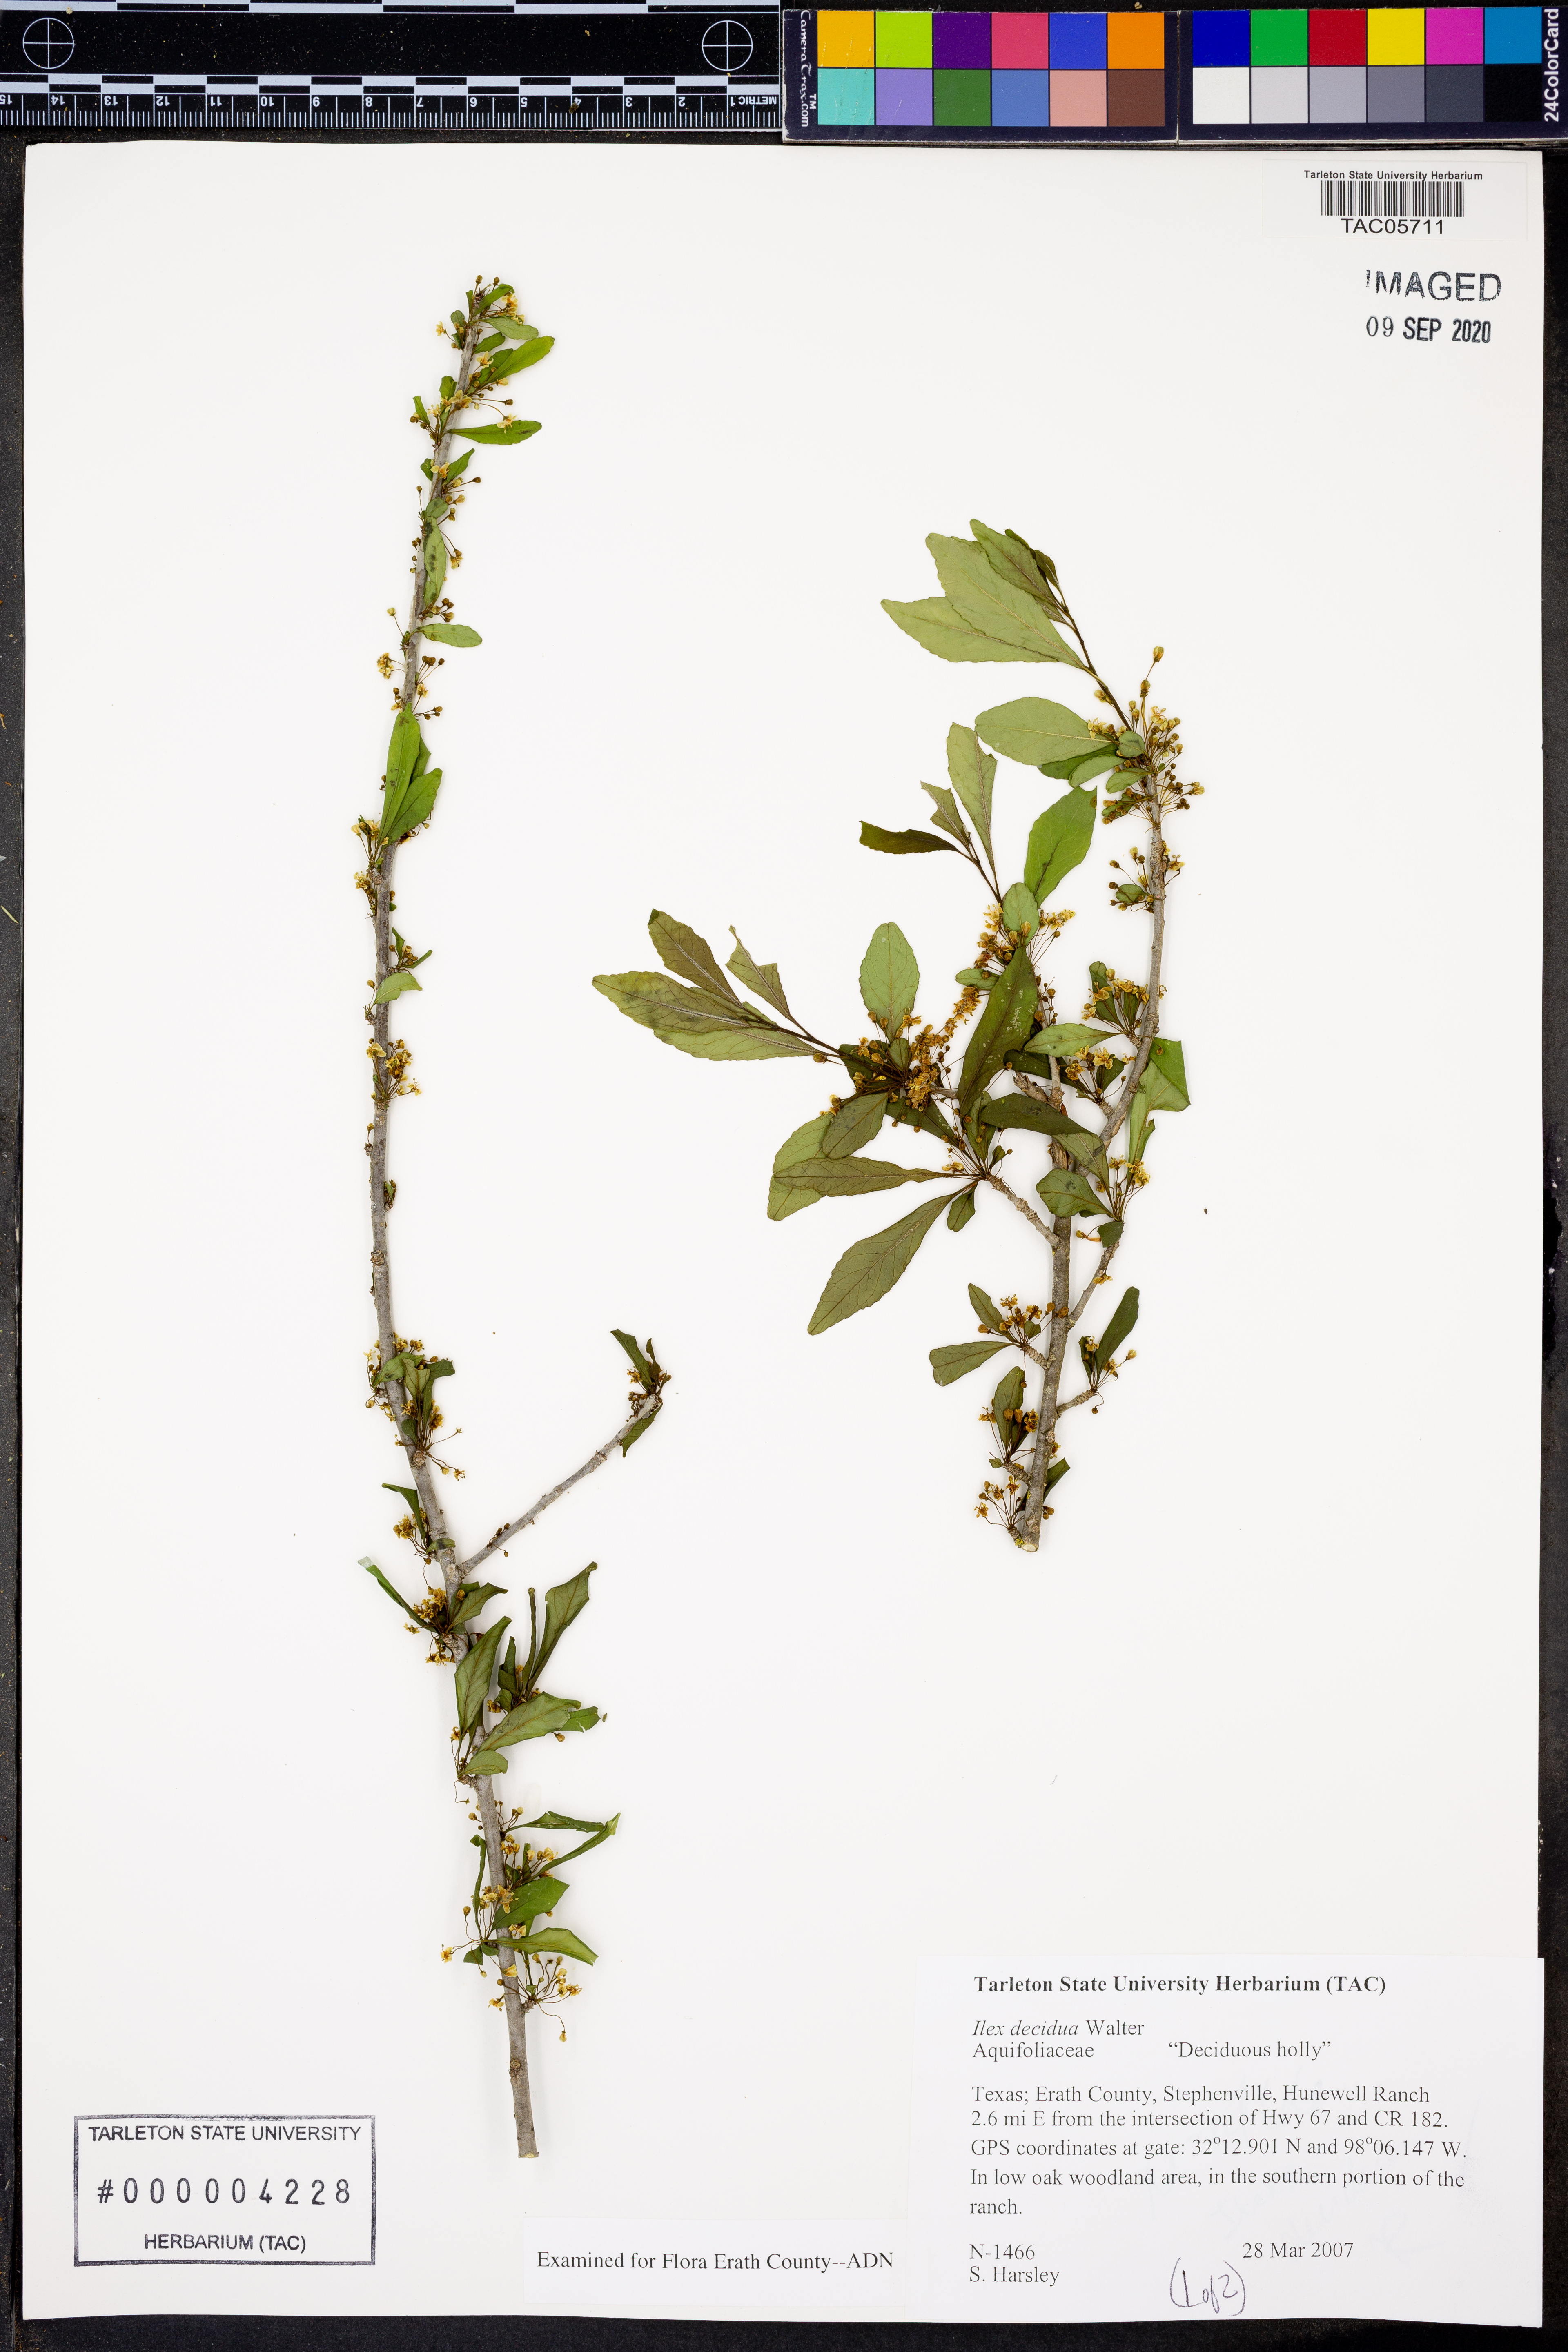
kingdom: Plantae
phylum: Tracheophyta
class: Magnoliopsida
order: Aquifoliales
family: Aquifoliaceae
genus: Ilex
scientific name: Ilex decidua
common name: Possum-haw
